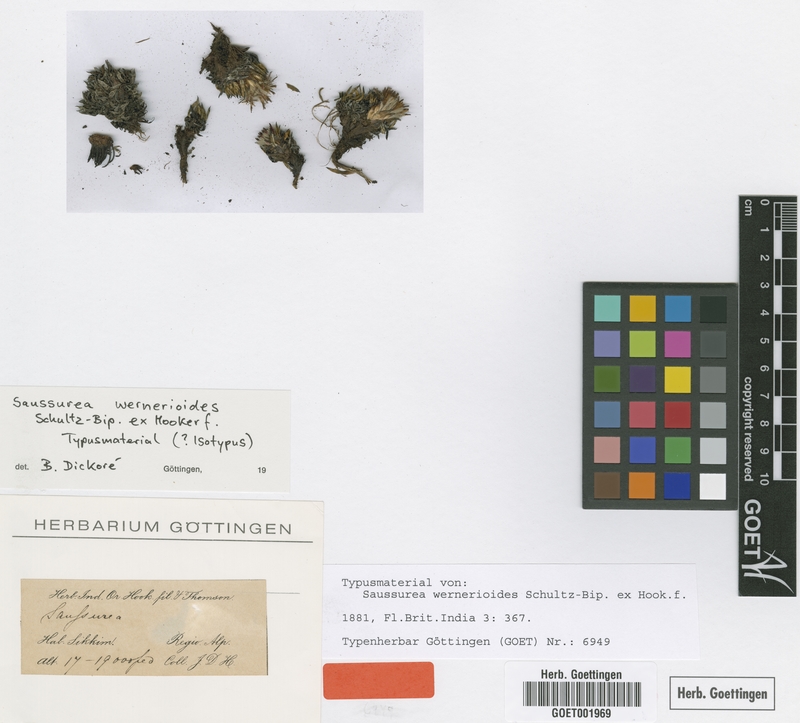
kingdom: Plantae
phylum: Tracheophyta
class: Magnoliopsida
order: Asterales
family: Asteraceae
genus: Saussurea
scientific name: Saussurea wernerioides
